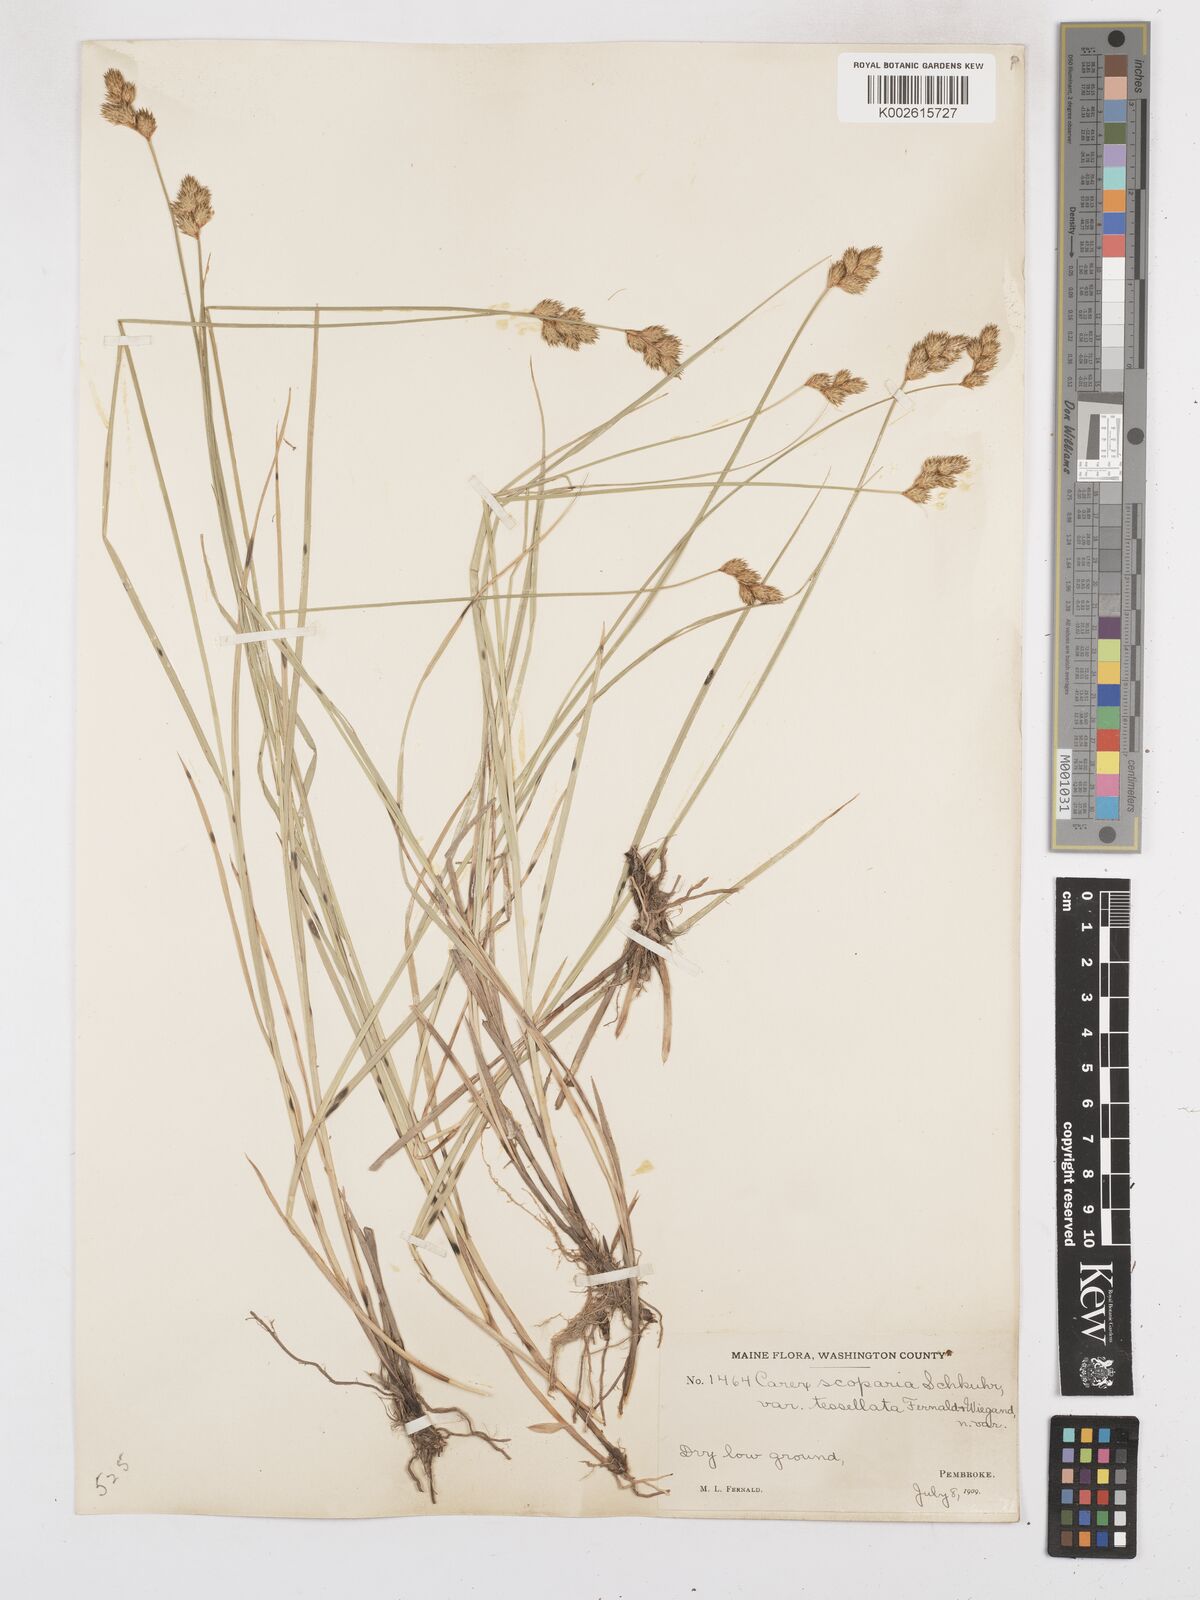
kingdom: Plantae
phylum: Tracheophyta
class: Liliopsida
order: Poales
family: Cyperaceae
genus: Carex
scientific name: Carex leporina
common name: Oval sedge
